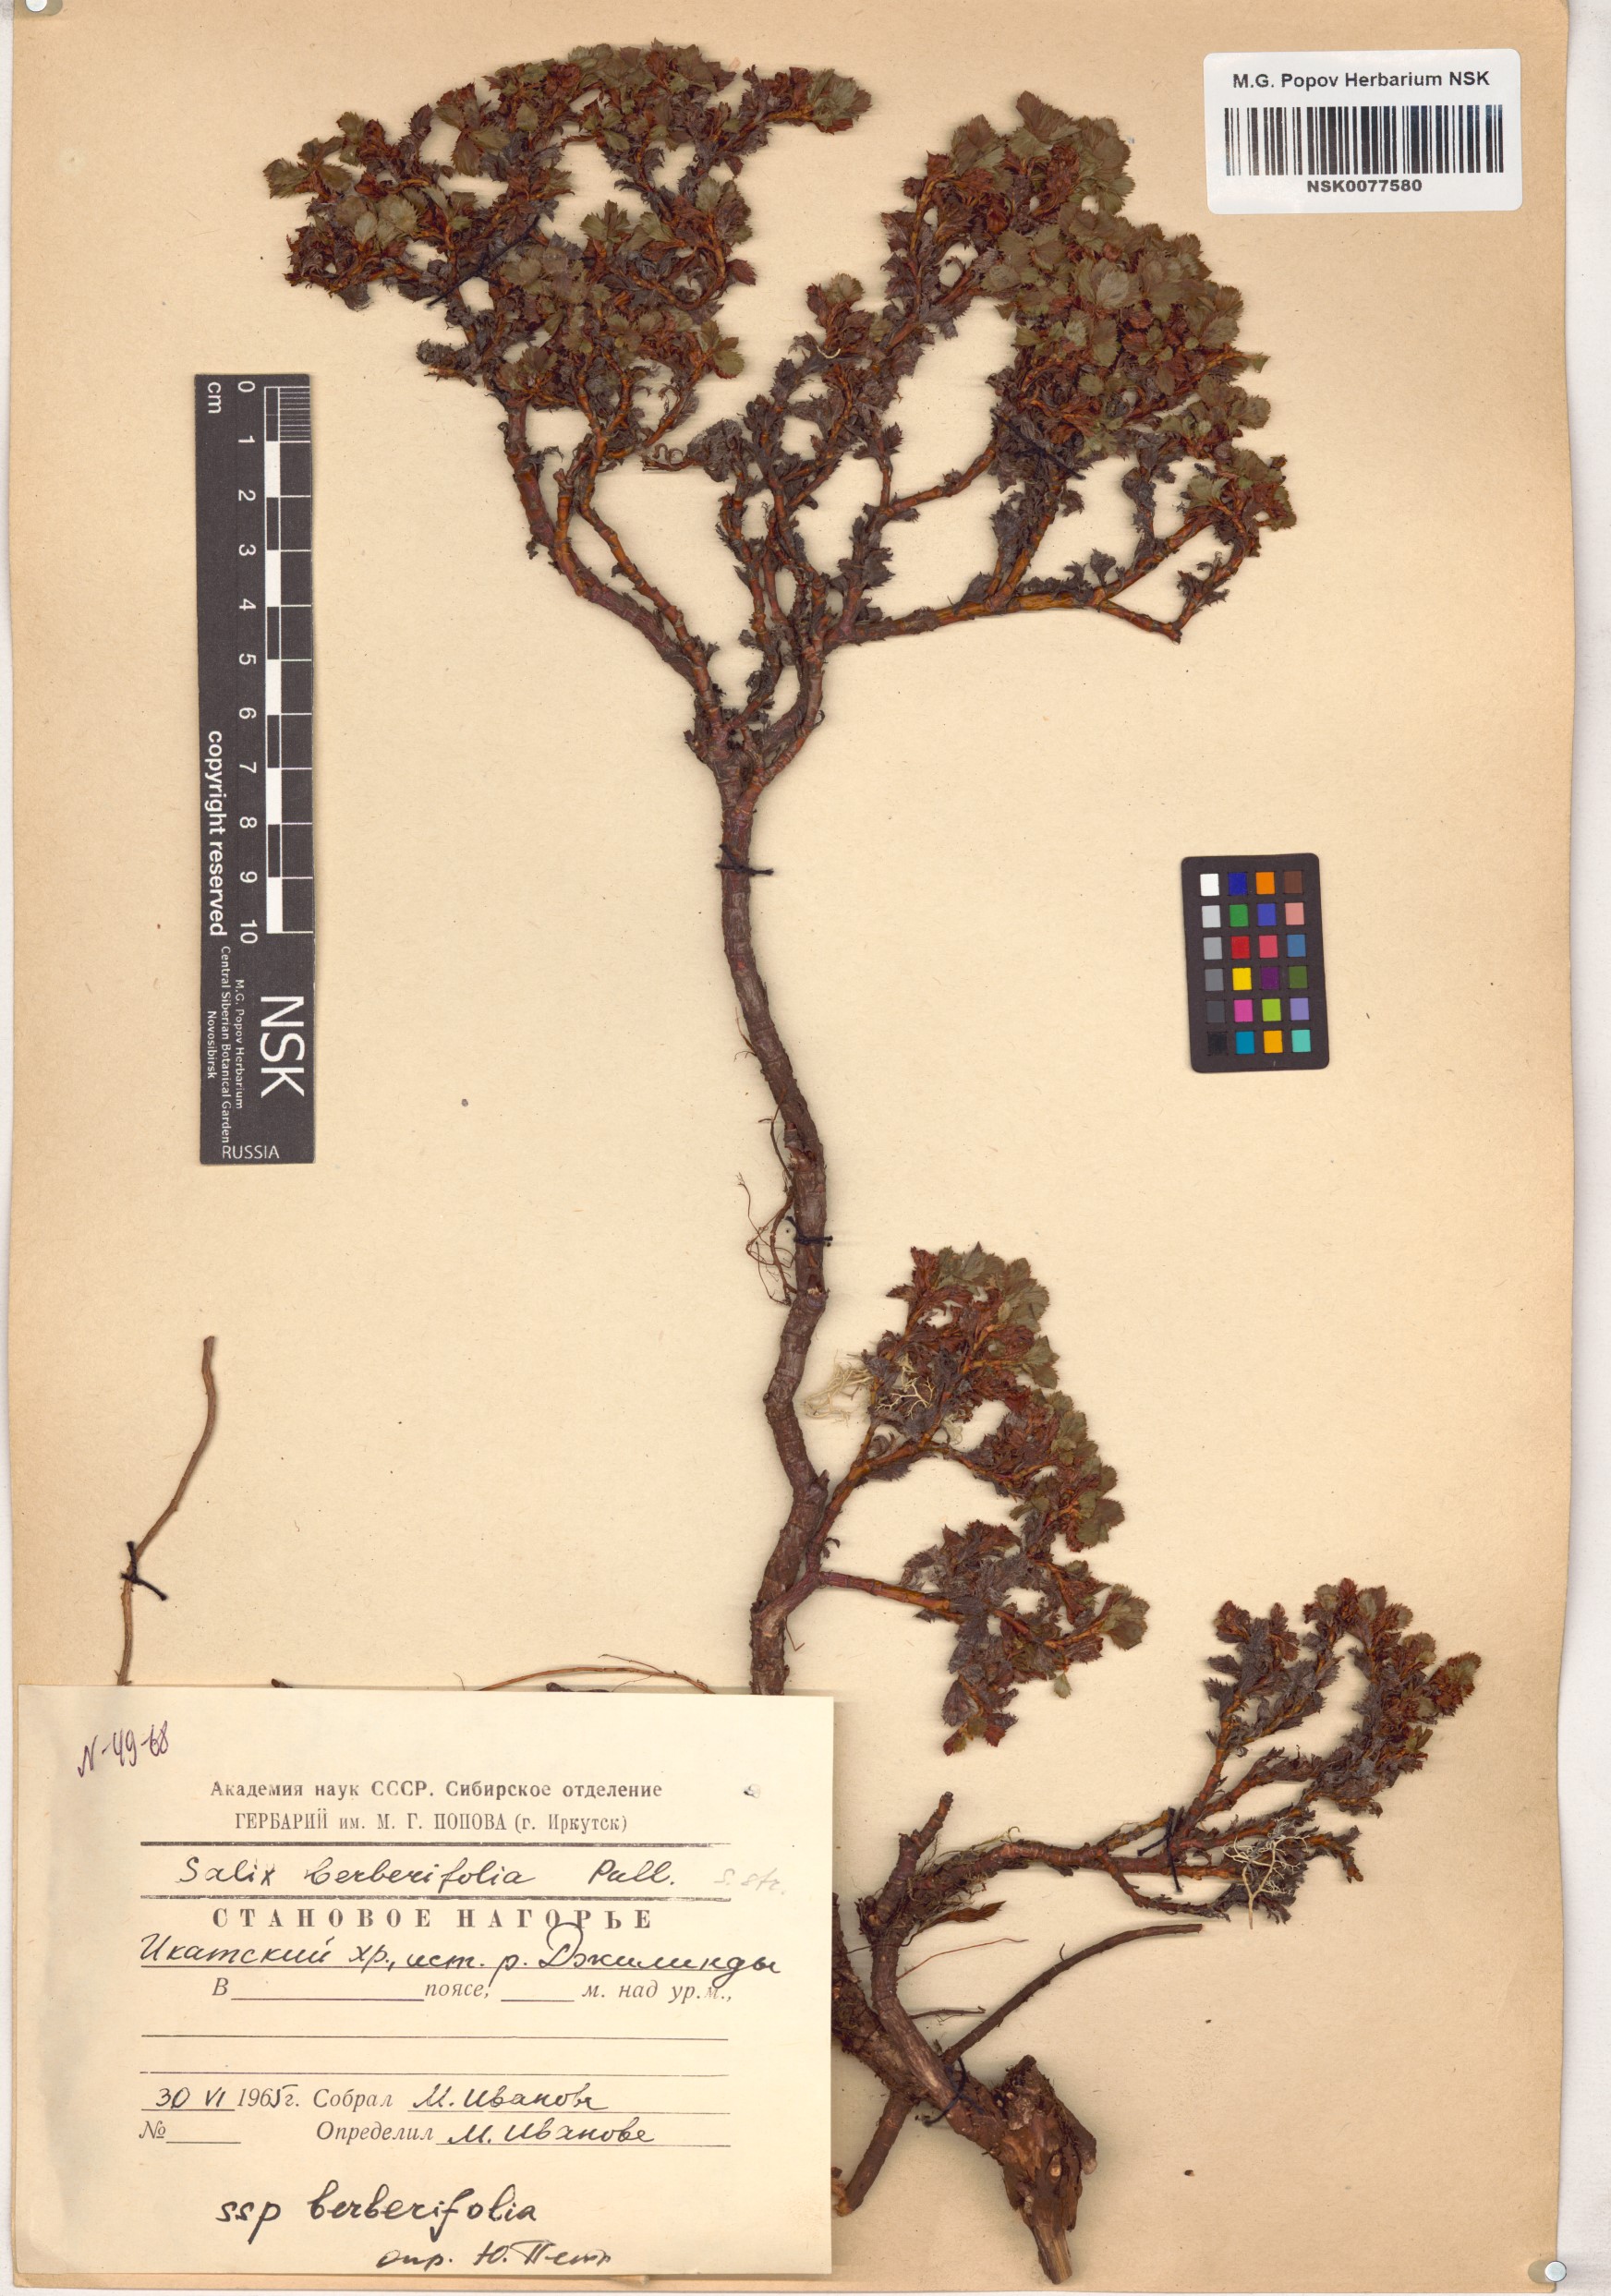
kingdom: Plantae
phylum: Tracheophyta
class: Magnoliopsida
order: Malpighiales
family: Salicaceae
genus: Salix
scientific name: Salix berberifolia
